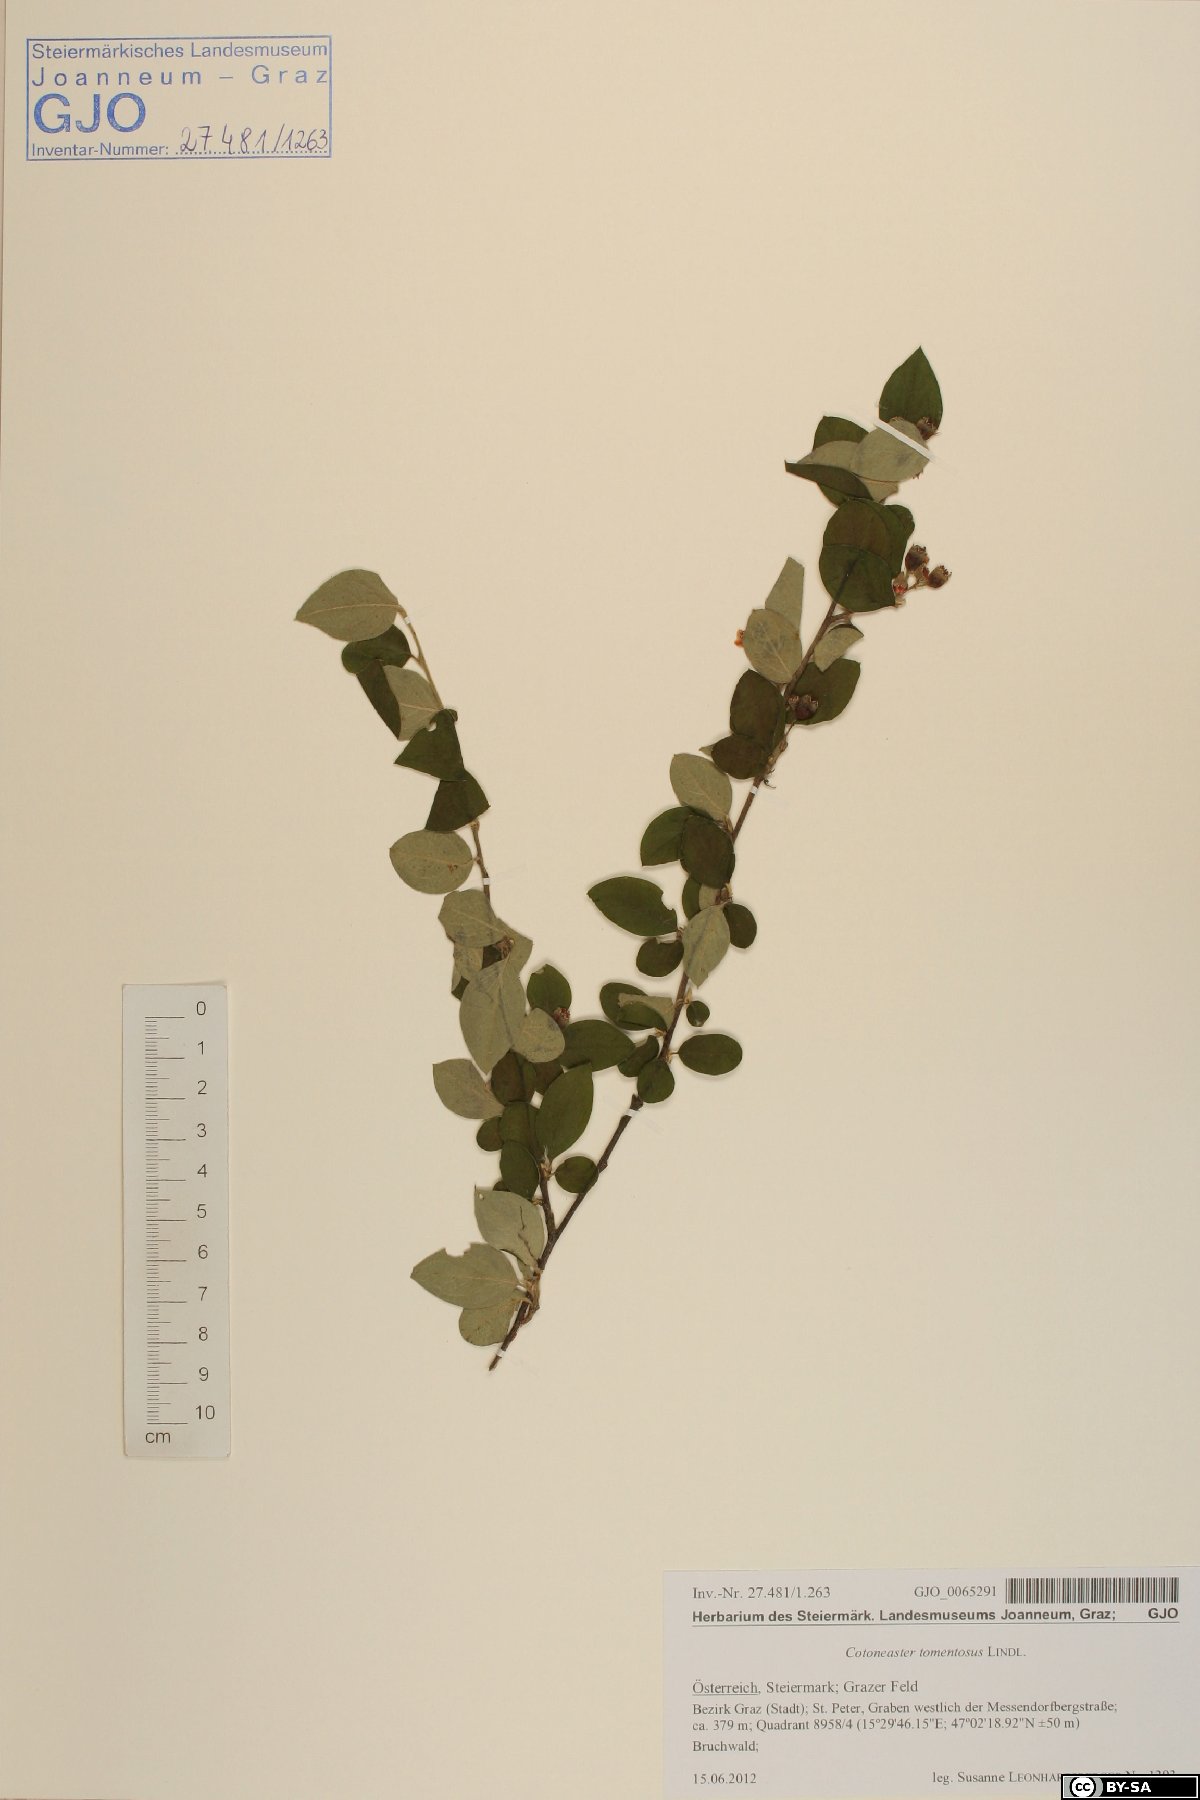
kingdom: Plantae
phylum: Tracheophyta
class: Magnoliopsida
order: Rosales
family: Rosaceae
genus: Cotoneaster
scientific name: Cotoneaster tomentosus
